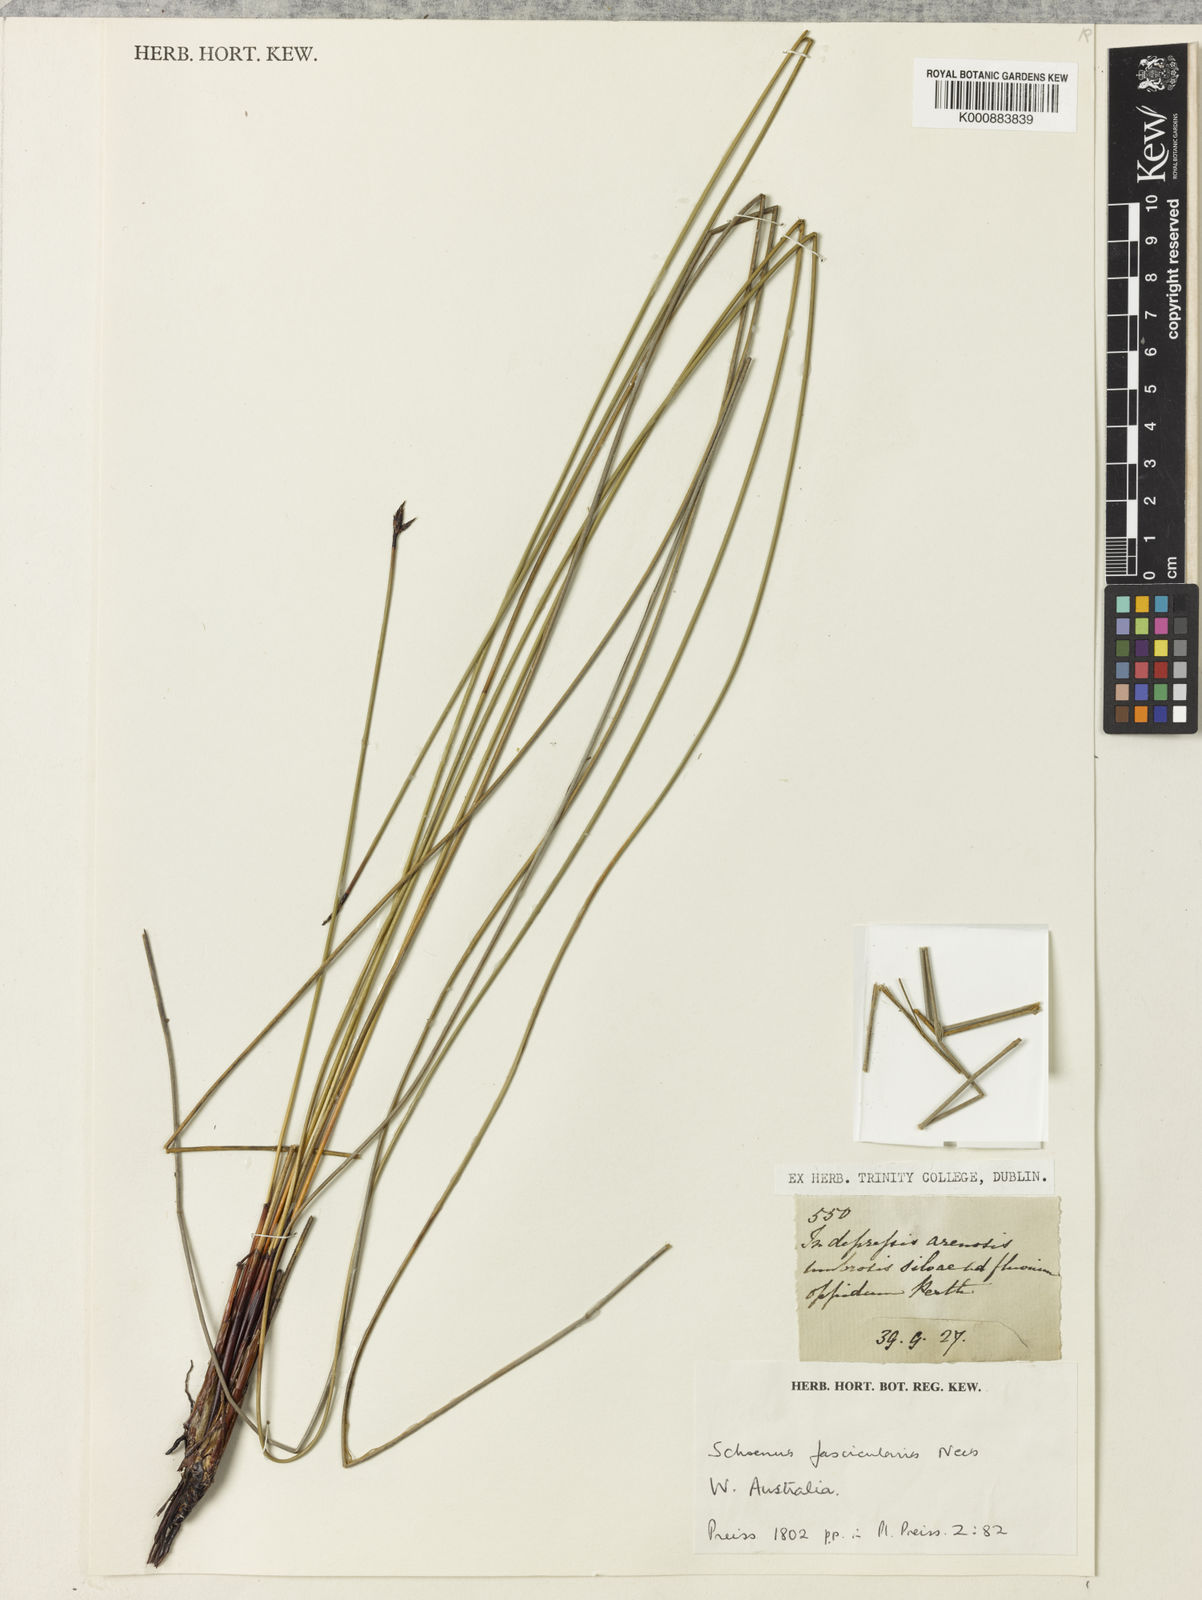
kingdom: Plantae
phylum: Tracheophyta
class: Liliopsida
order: Poales
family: Cyperaceae
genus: Schoenus
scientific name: Schoenus
